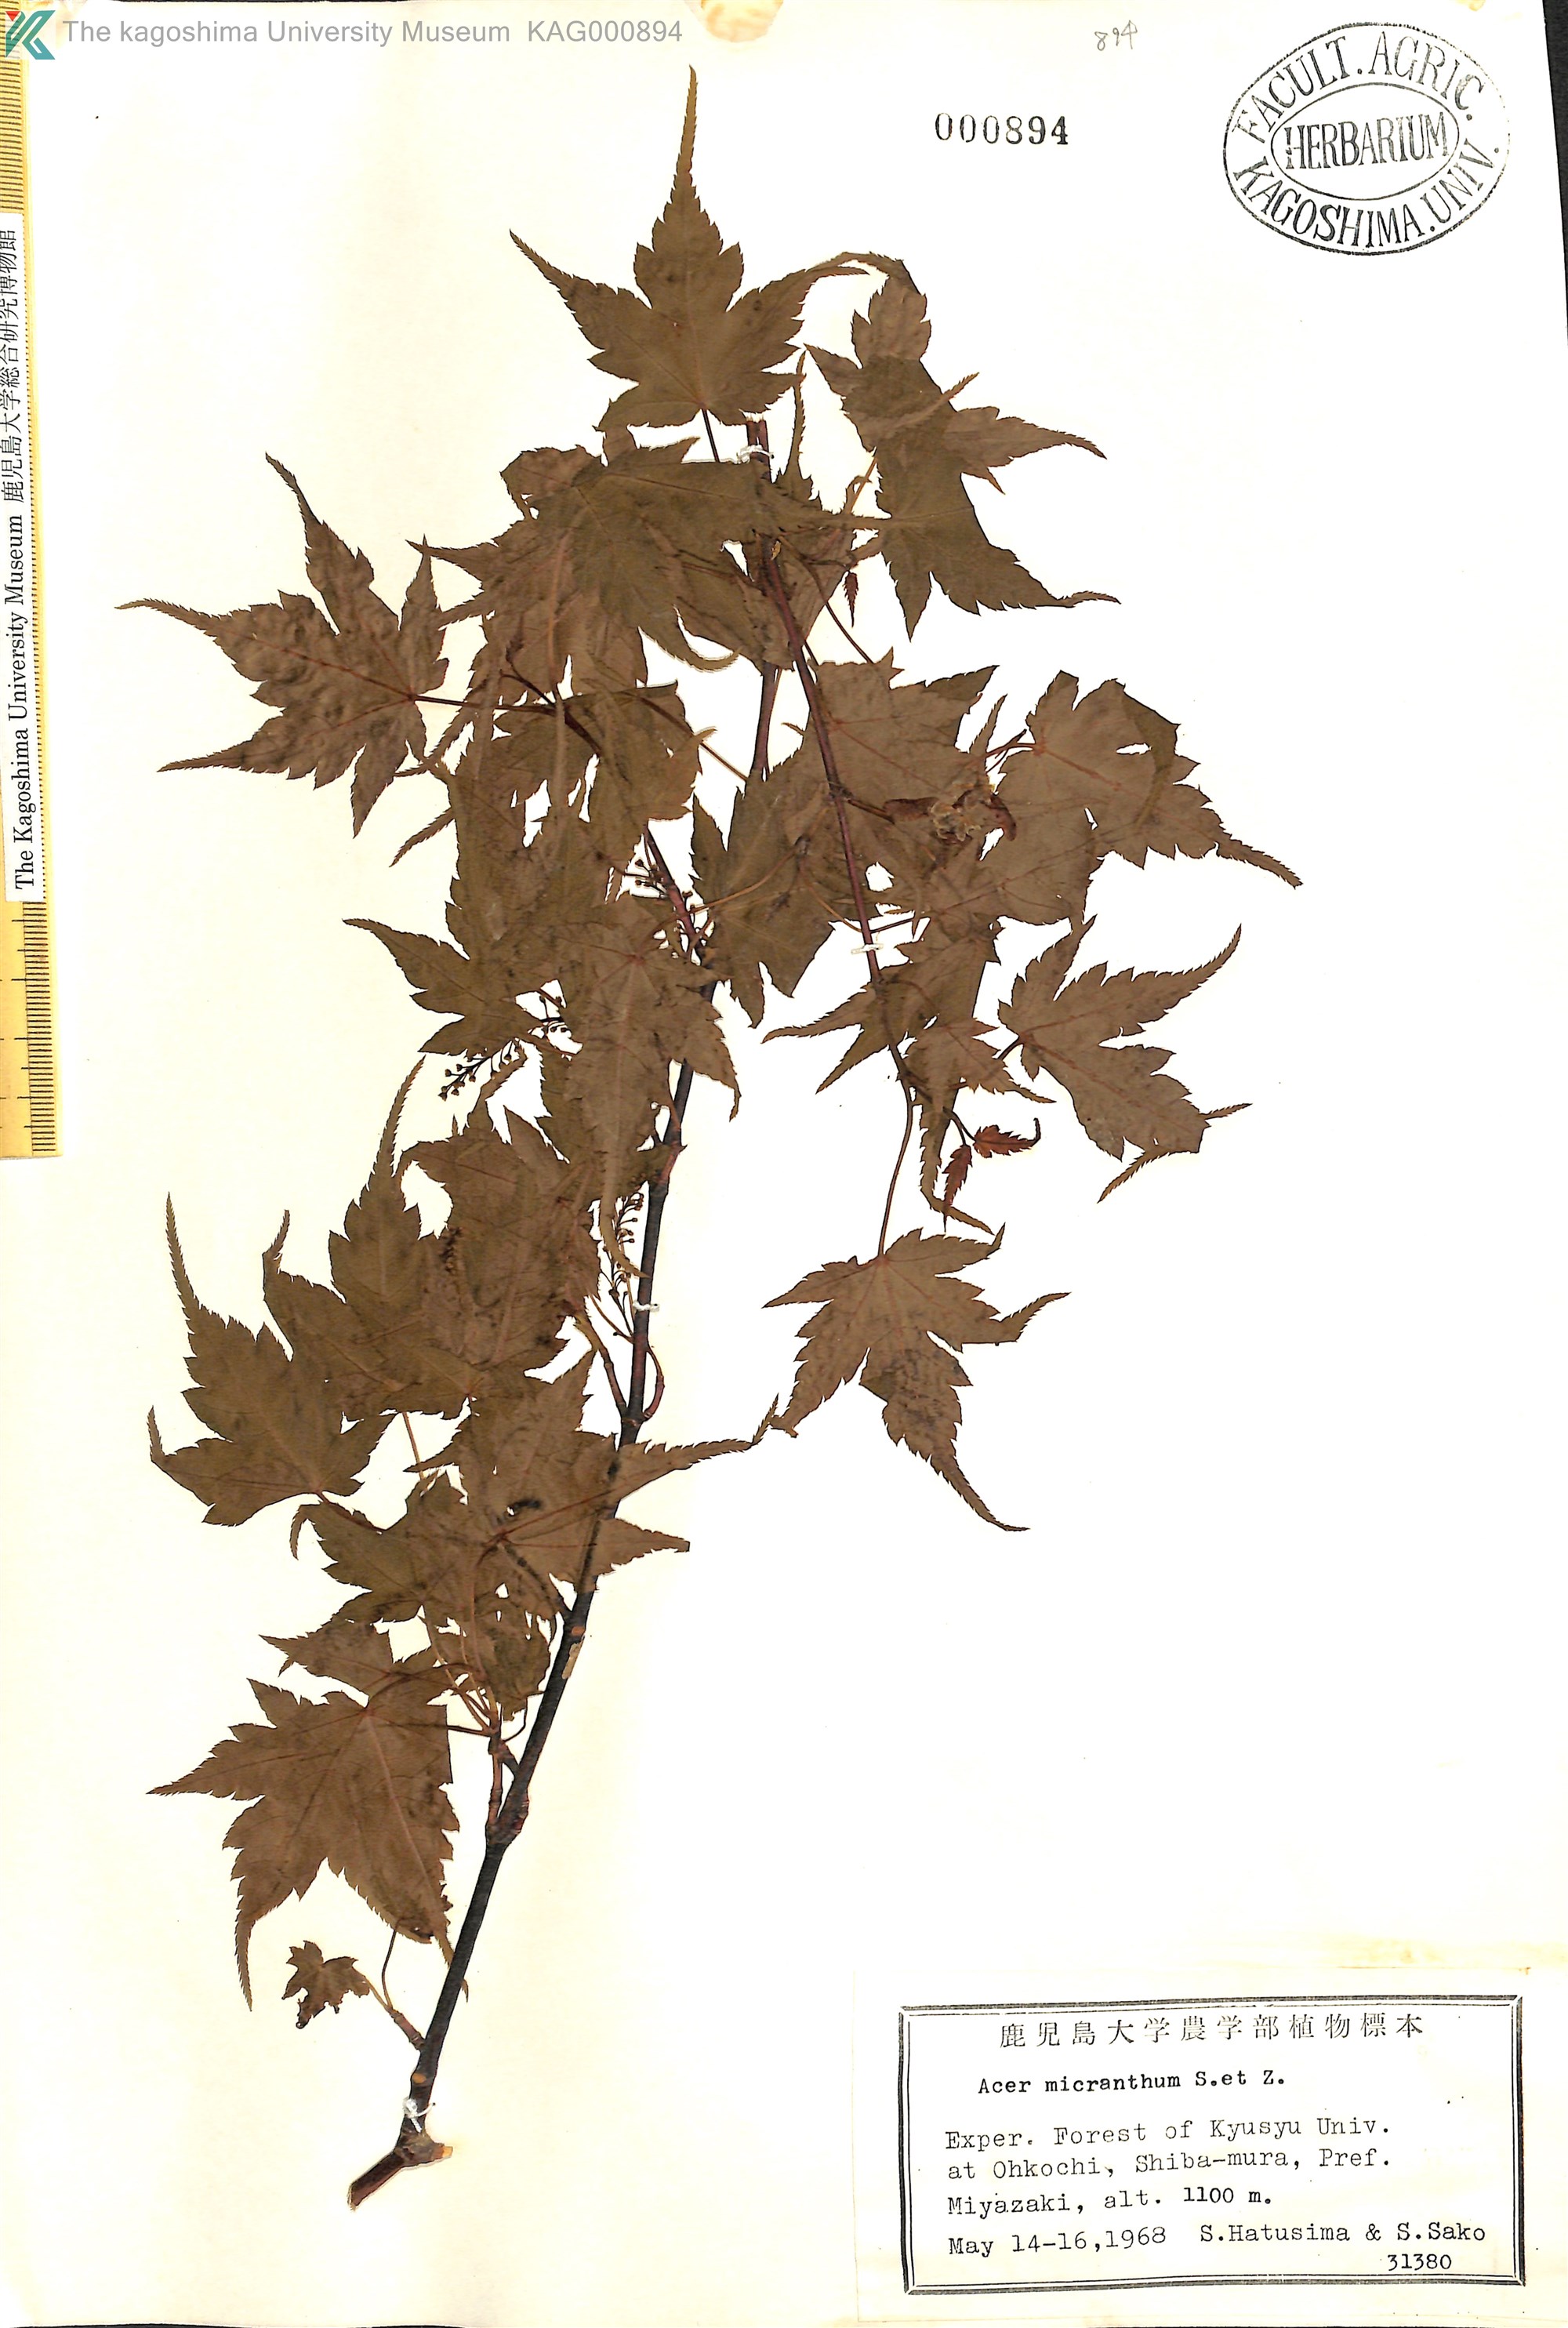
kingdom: Plantae
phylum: Tracheophyta
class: Magnoliopsida
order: Sapindales
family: Sapindaceae
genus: Acer
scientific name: Acer micranthum
